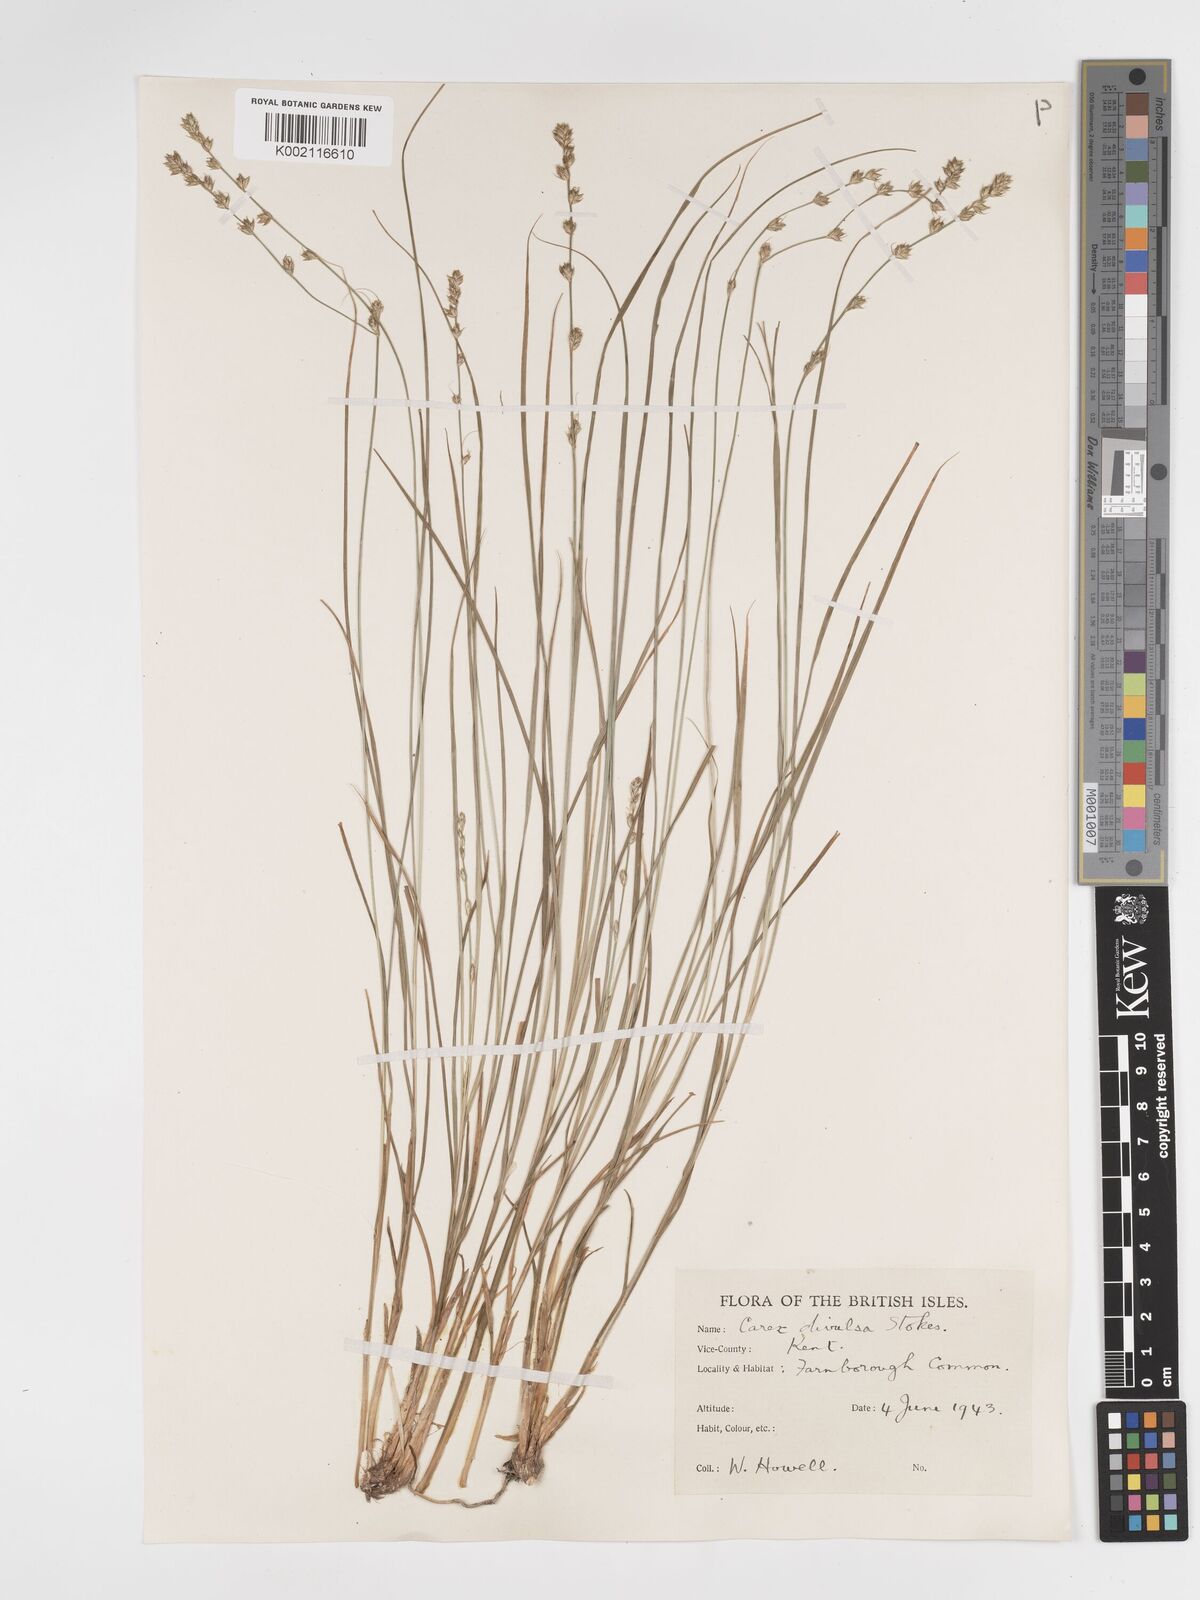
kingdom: Plantae
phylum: Tracheophyta
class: Liliopsida
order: Poales
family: Cyperaceae
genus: Carex
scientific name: Carex divulsa
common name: Grassland sedge
